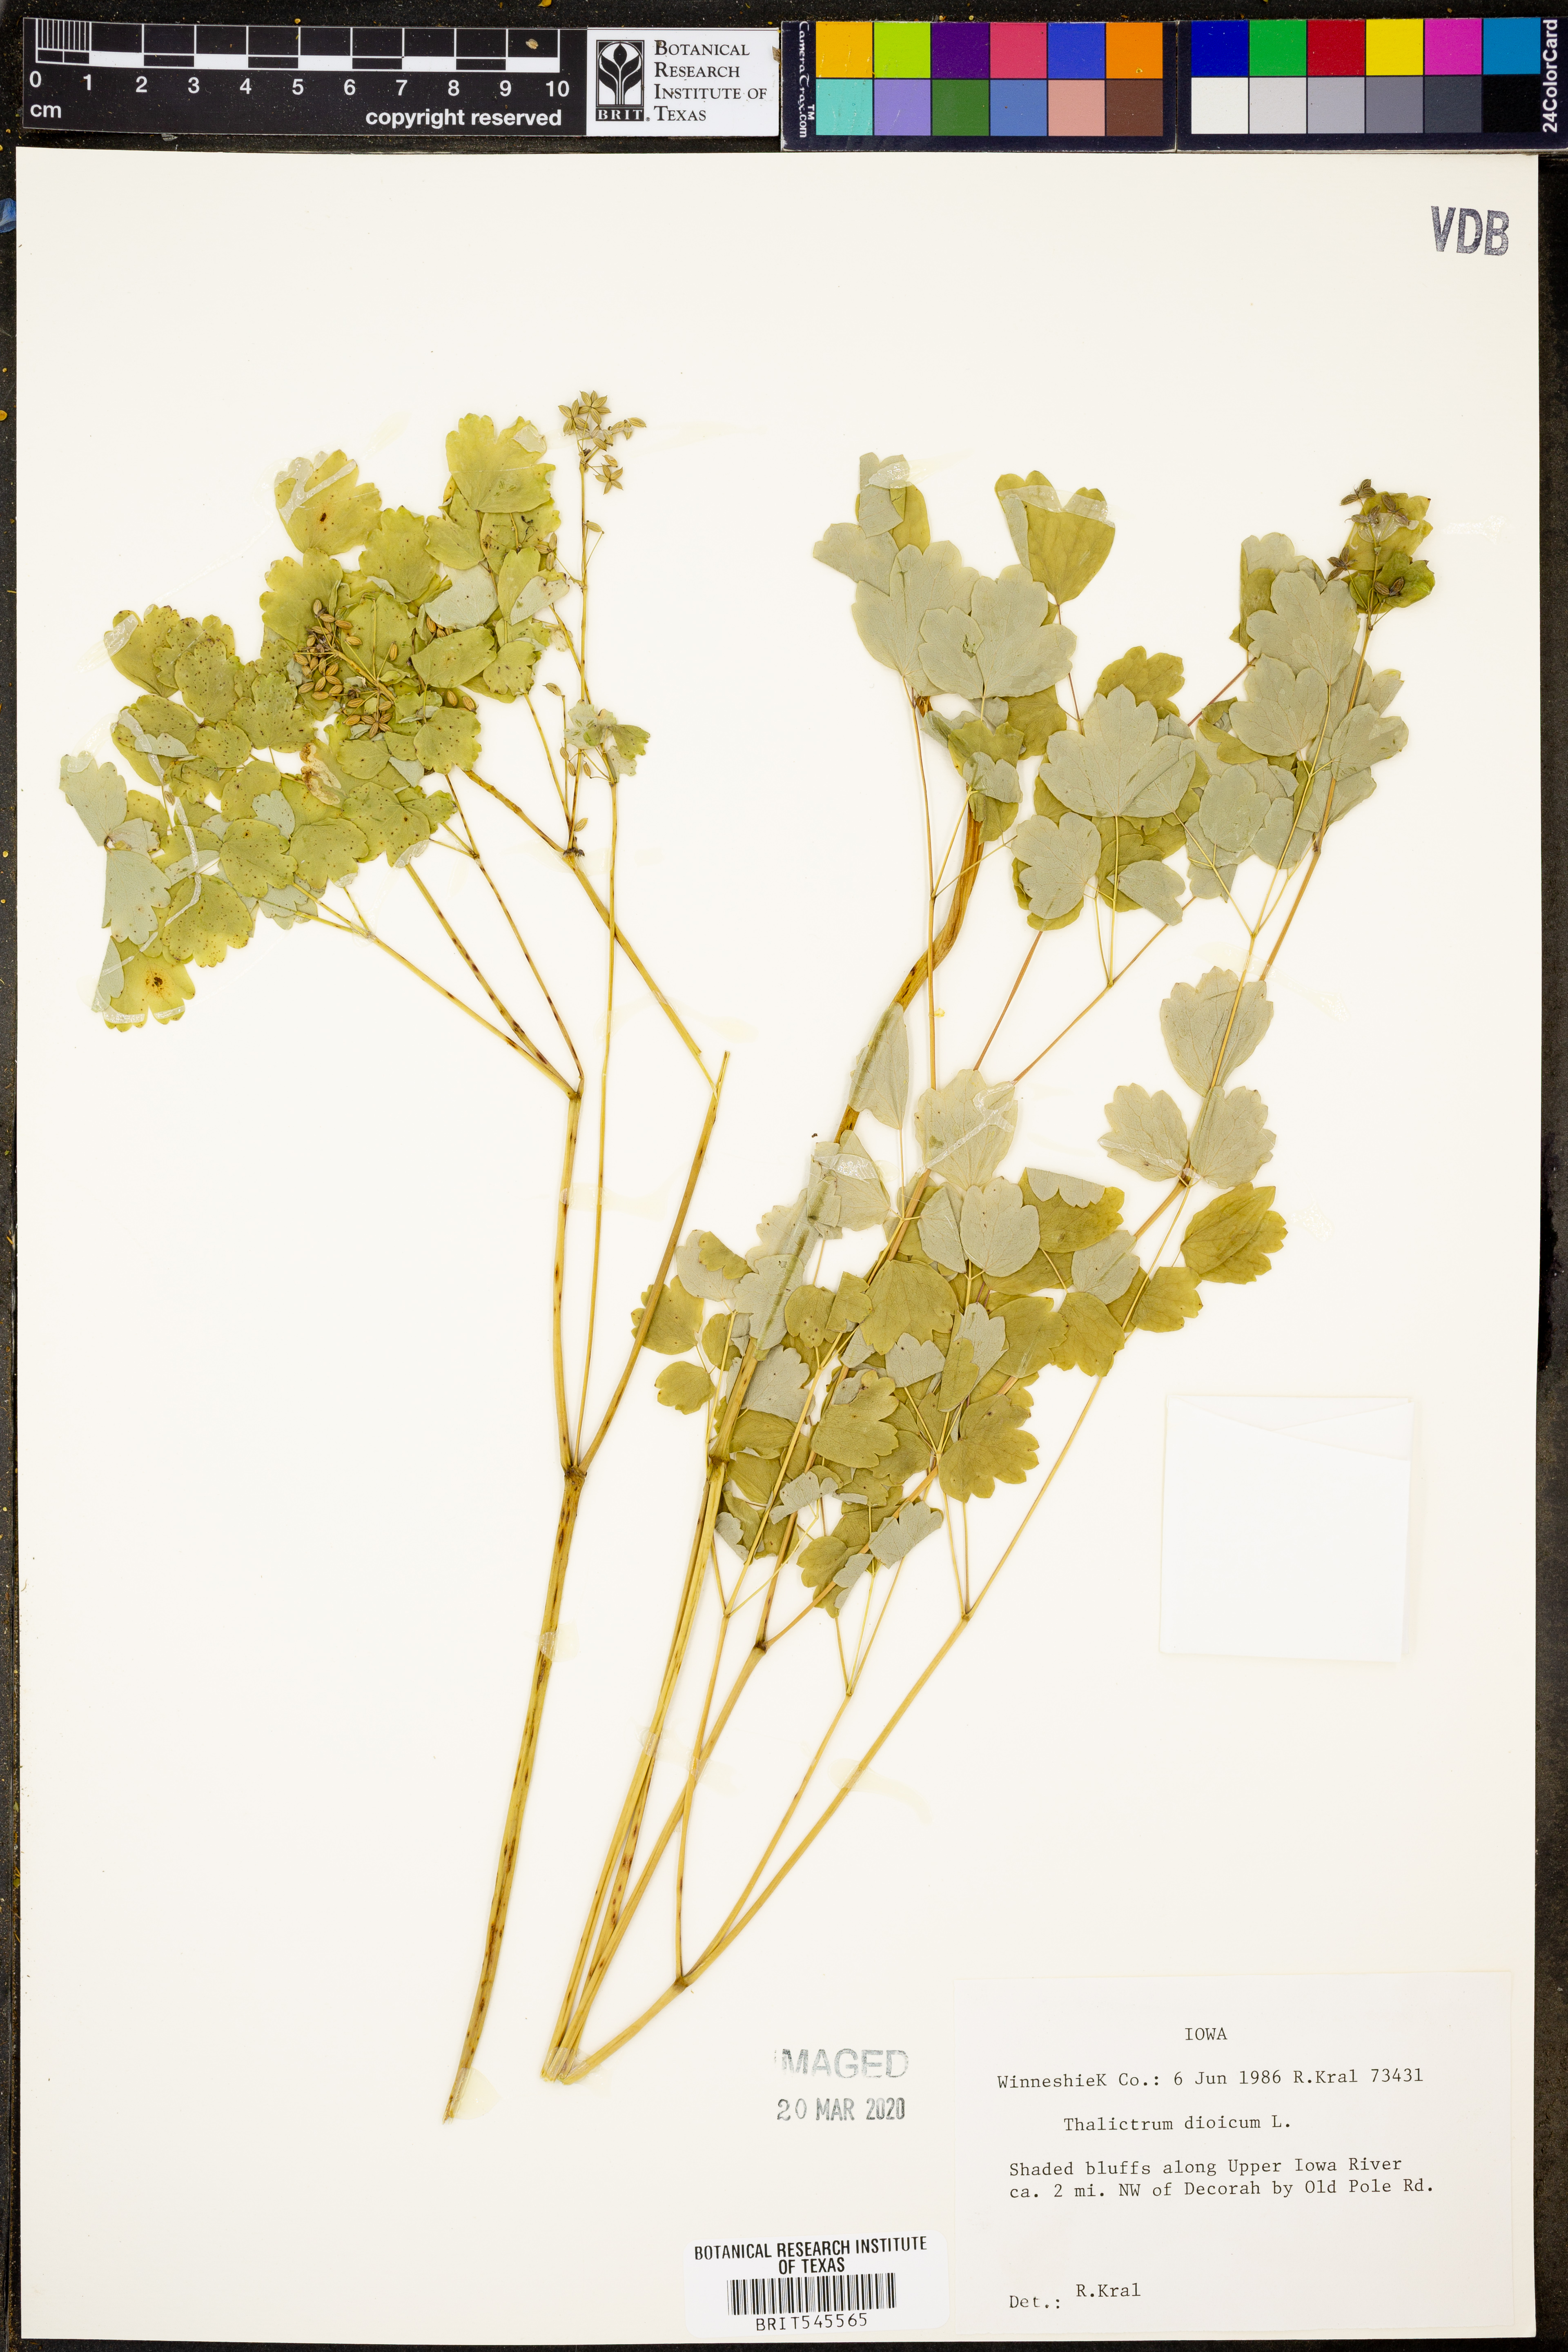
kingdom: Plantae
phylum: Tracheophyta
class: Magnoliopsida
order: Ranunculales
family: Ranunculaceae
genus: Thalictrum
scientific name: Thalictrum dioicum
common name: Early meadow-rue
